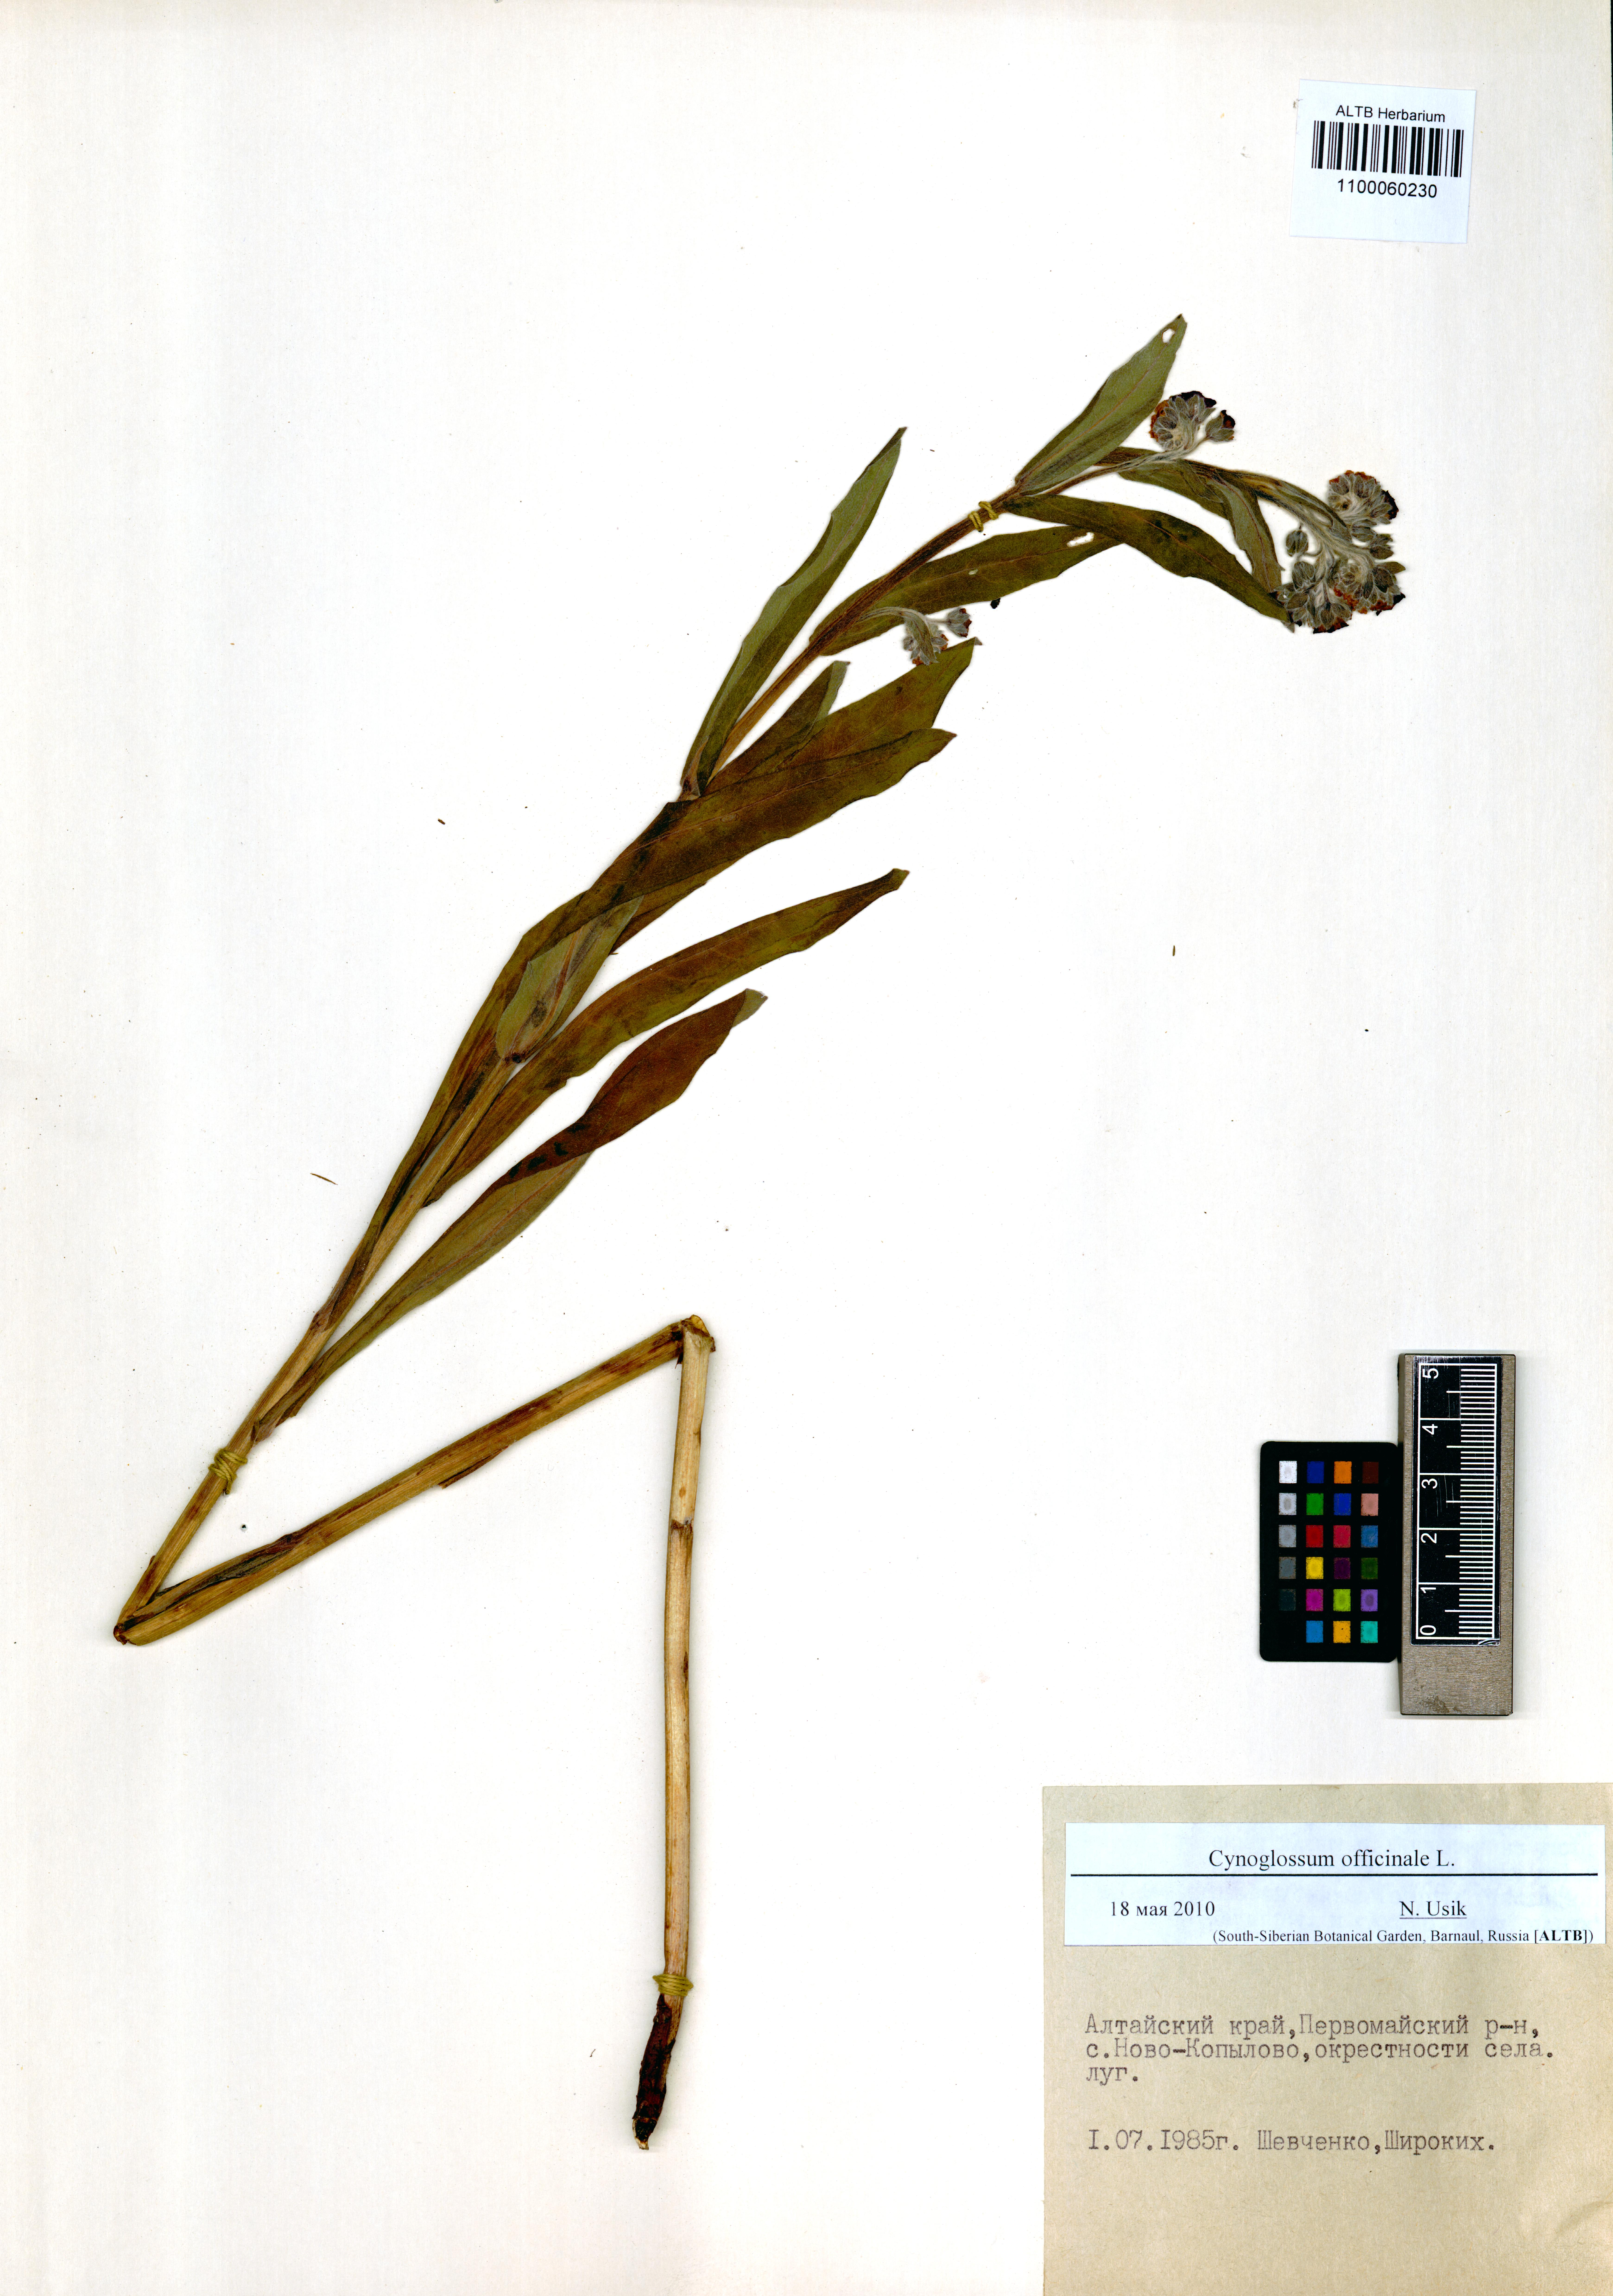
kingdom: Plantae
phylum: Tracheophyta
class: Magnoliopsida
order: Boraginales
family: Boraginaceae
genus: Cynoglossum
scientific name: Cynoglossum officinale
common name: Hound's-tongue
